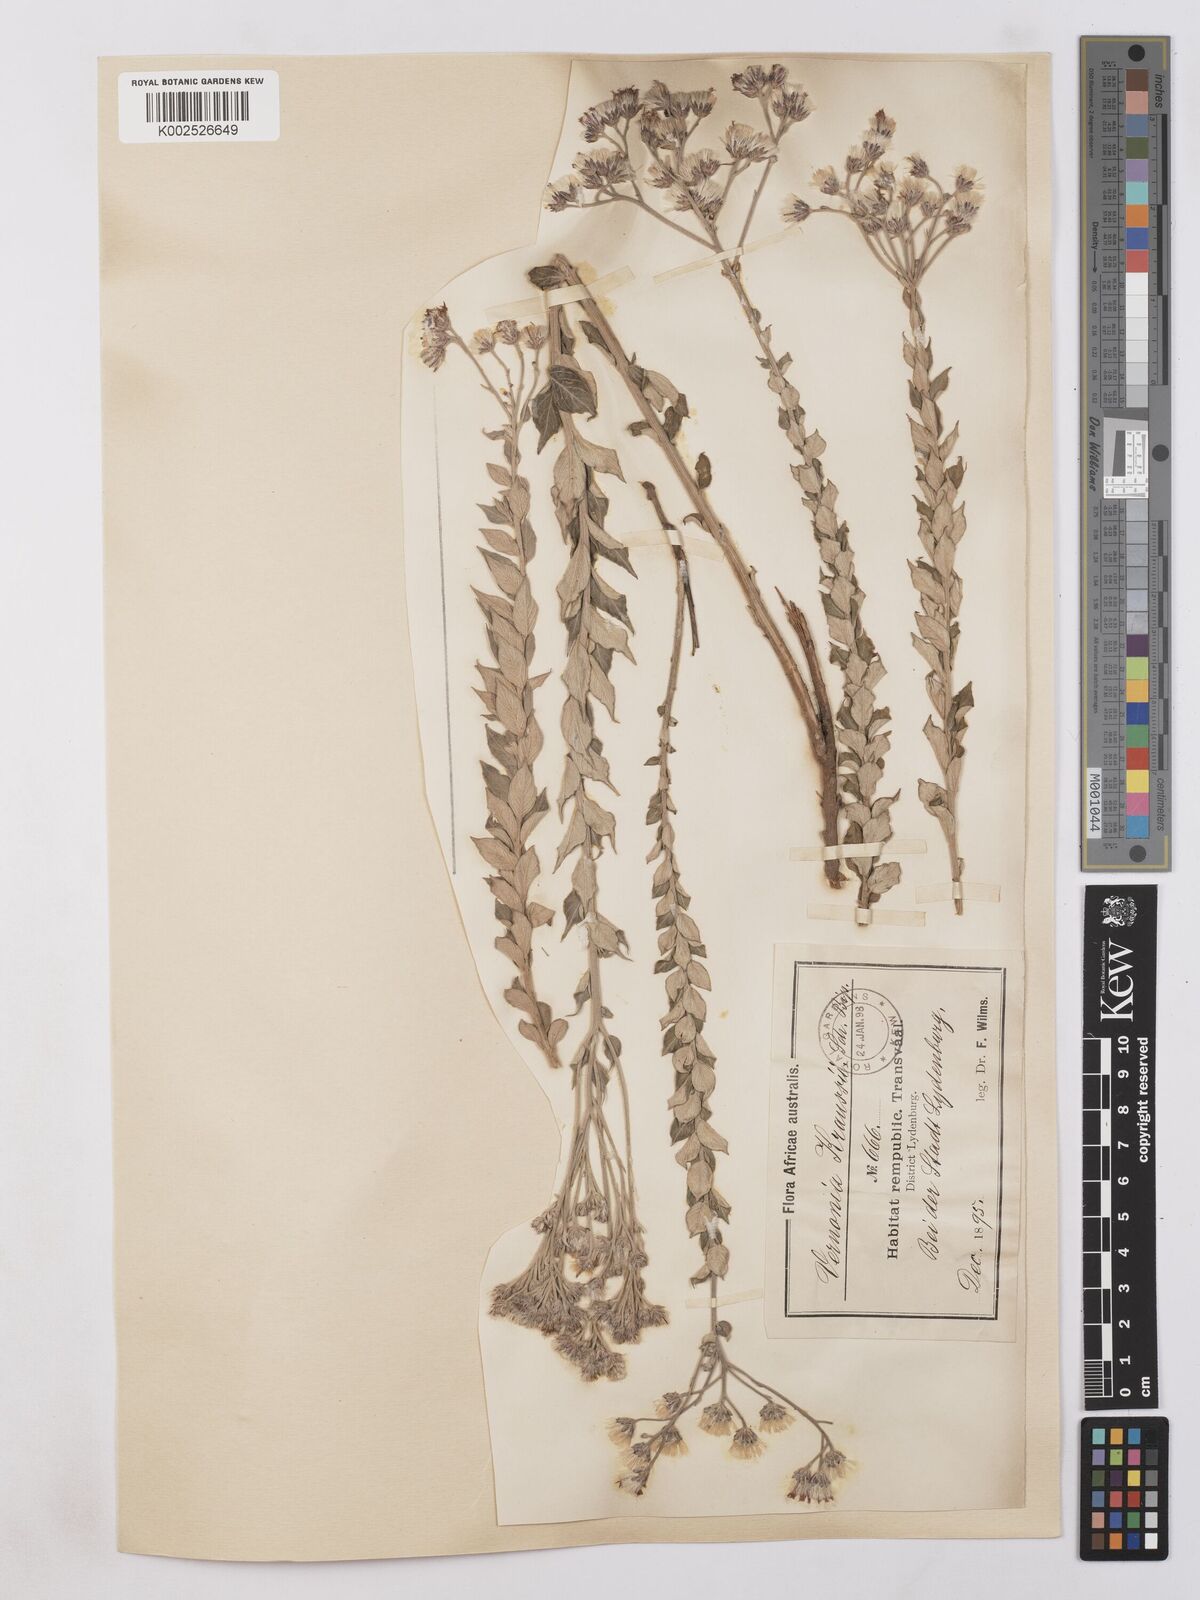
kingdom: Plantae
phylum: Tracheophyta
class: Magnoliopsida
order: Asterales
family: Asteraceae
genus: Hilliardiella
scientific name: Hilliardiella oligocephala
